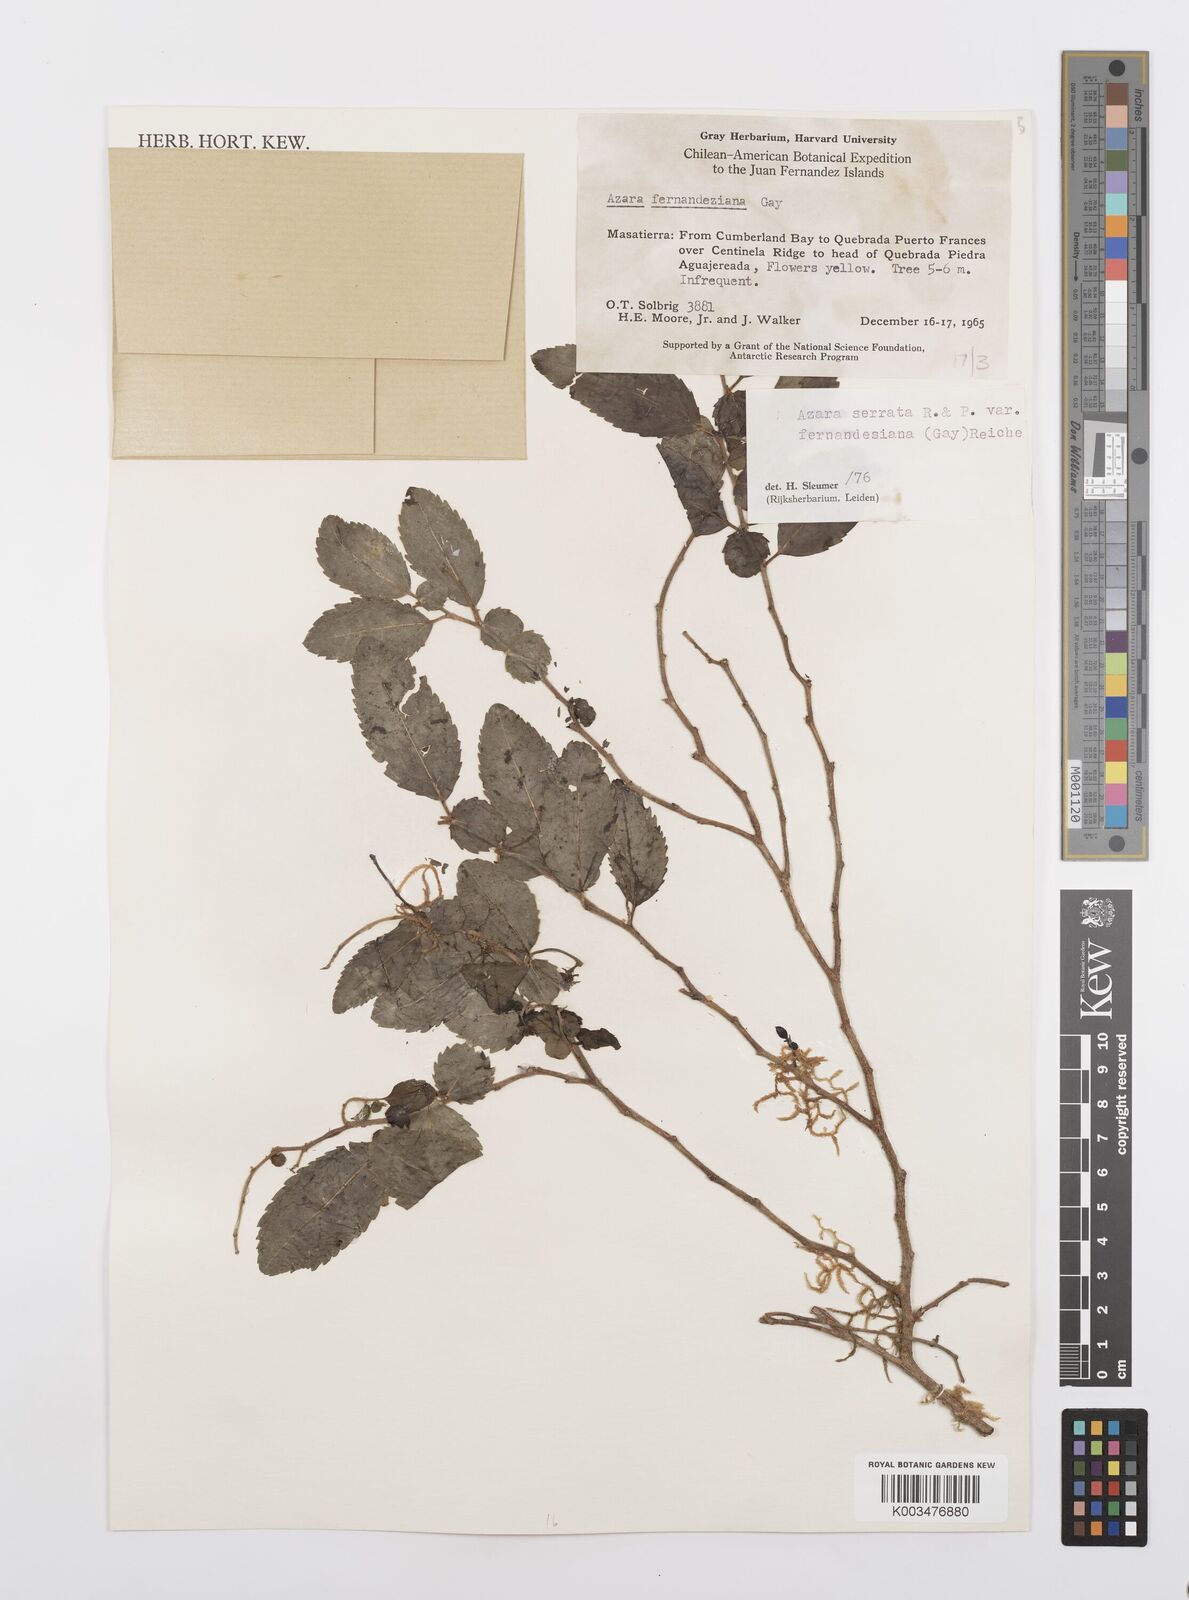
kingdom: Plantae
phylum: Tracheophyta
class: Magnoliopsida
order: Malpighiales
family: Salicaceae
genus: Azara
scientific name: Azara serrata
